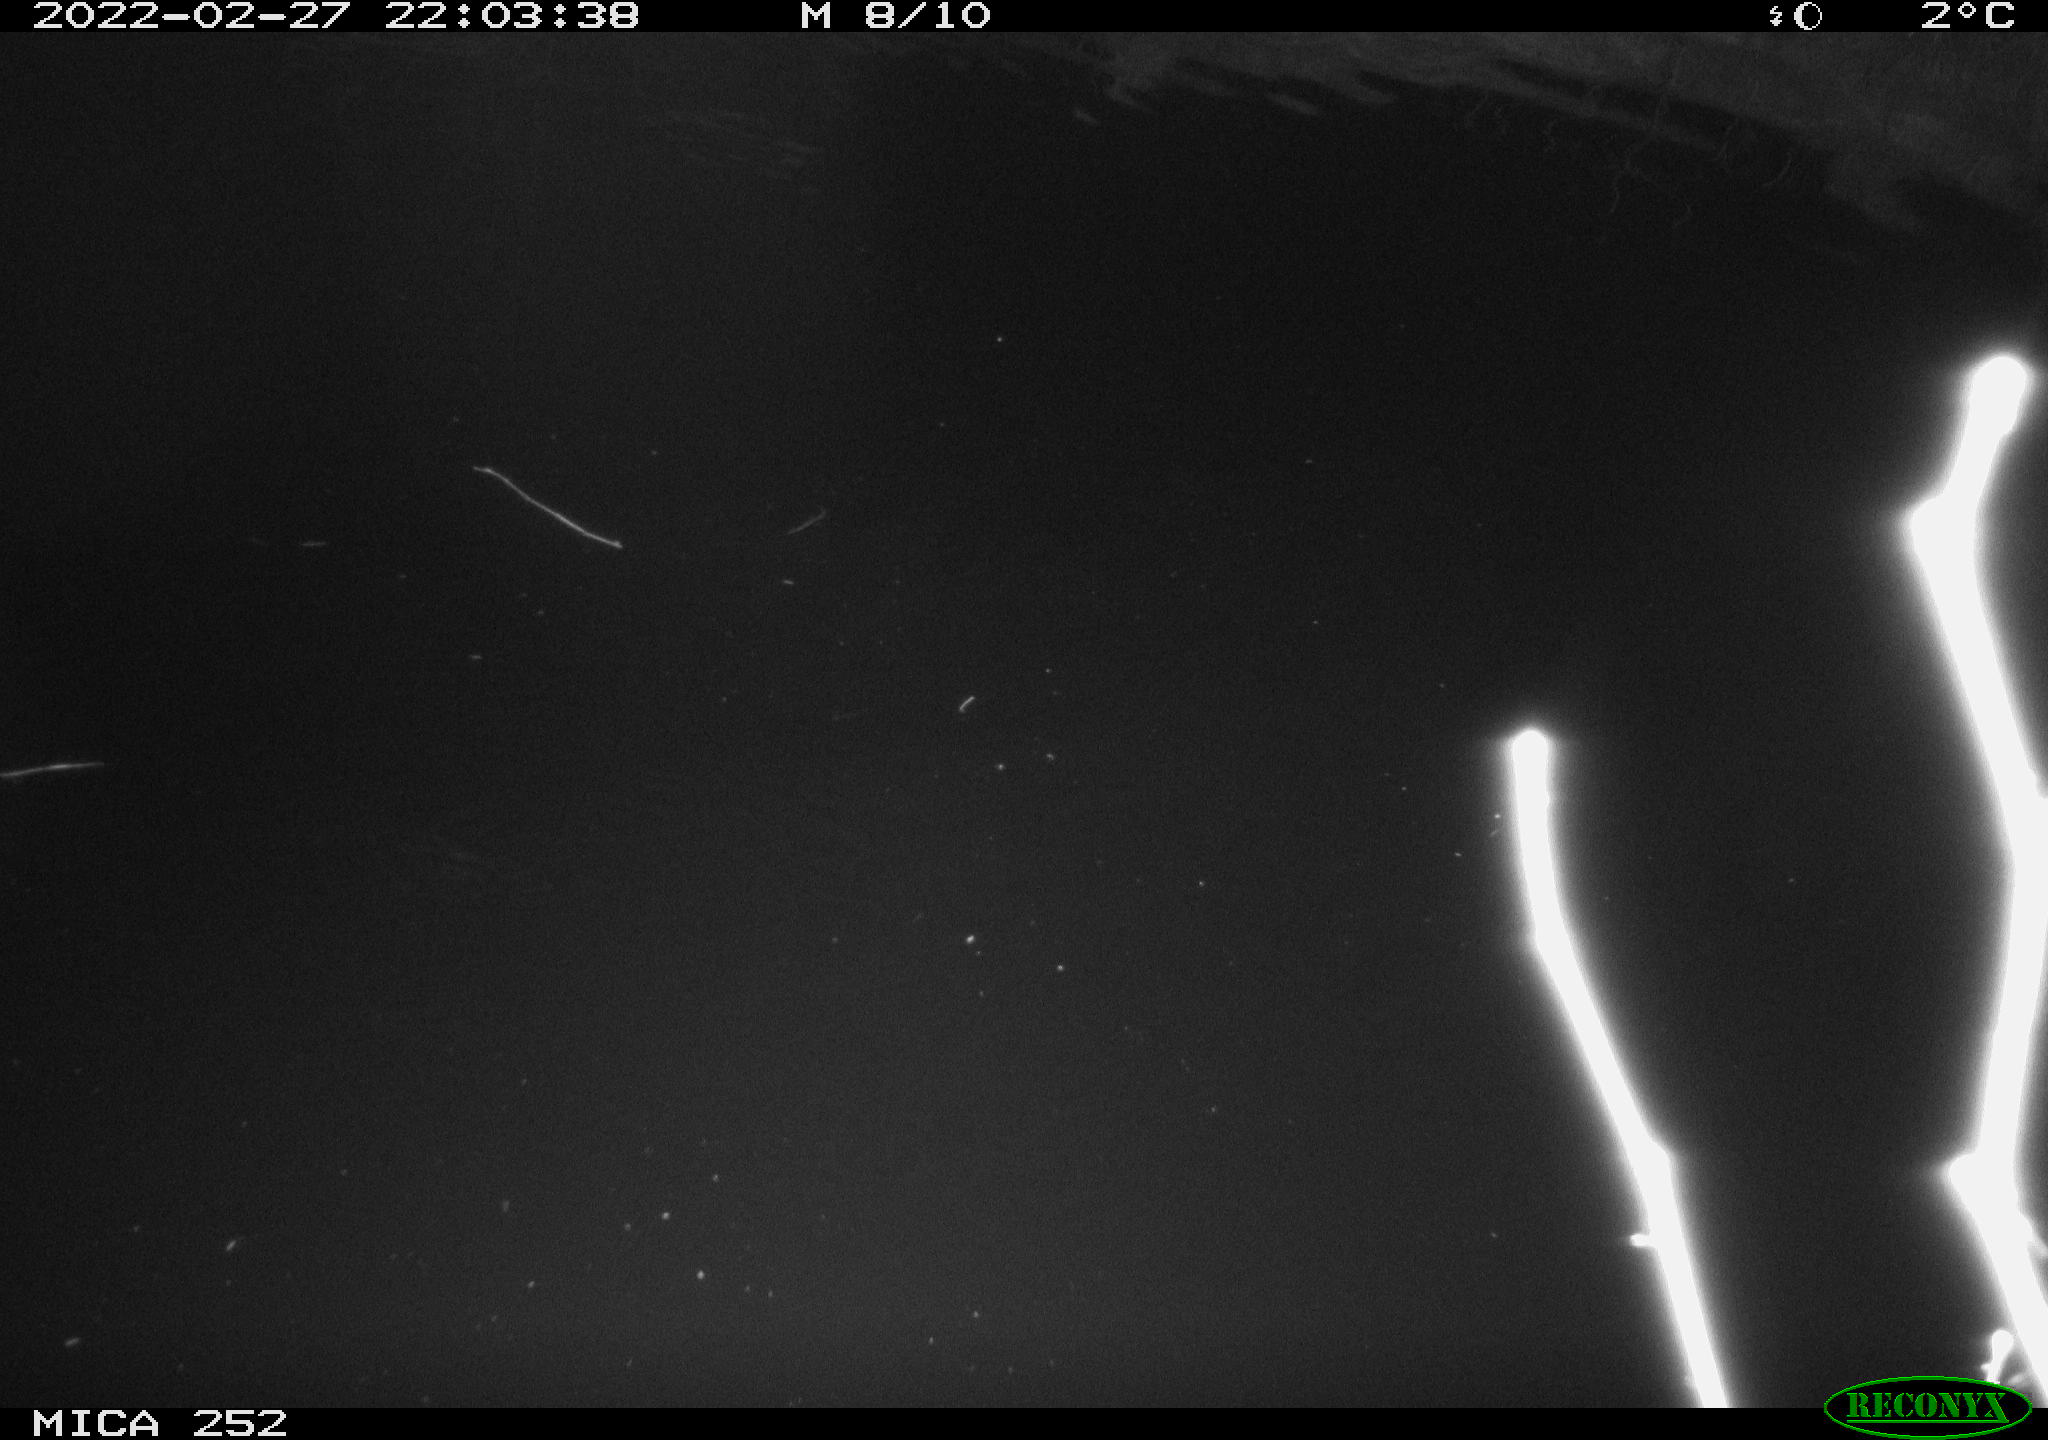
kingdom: Animalia
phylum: Chordata
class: Mammalia
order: Rodentia
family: Castoridae
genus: Castor
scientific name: Castor fiber
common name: Eurasian beaver
